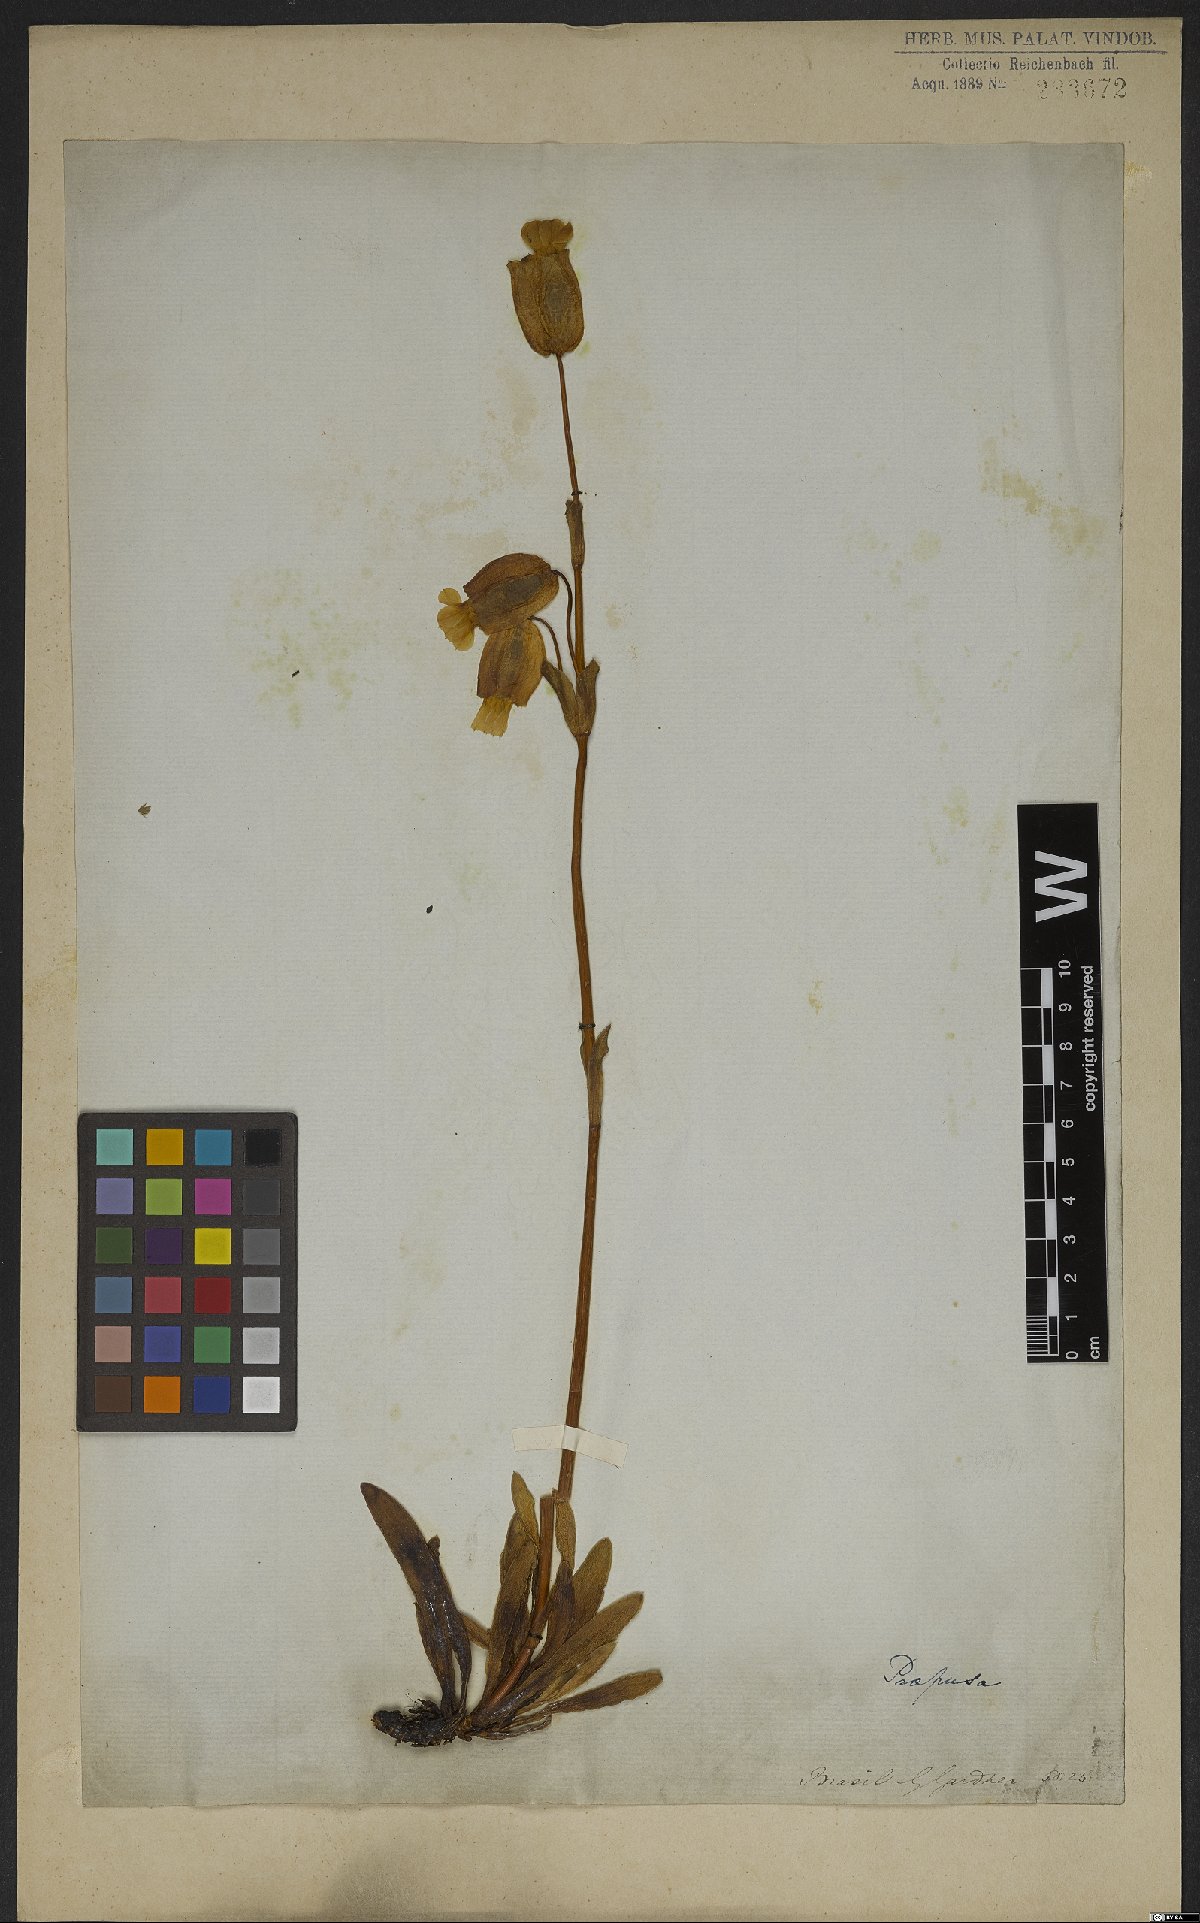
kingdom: Plantae
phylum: Tracheophyta
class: Magnoliopsida
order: Gentianales
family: Gentianaceae
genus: Prepusa
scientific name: Prepusa hookeriana
